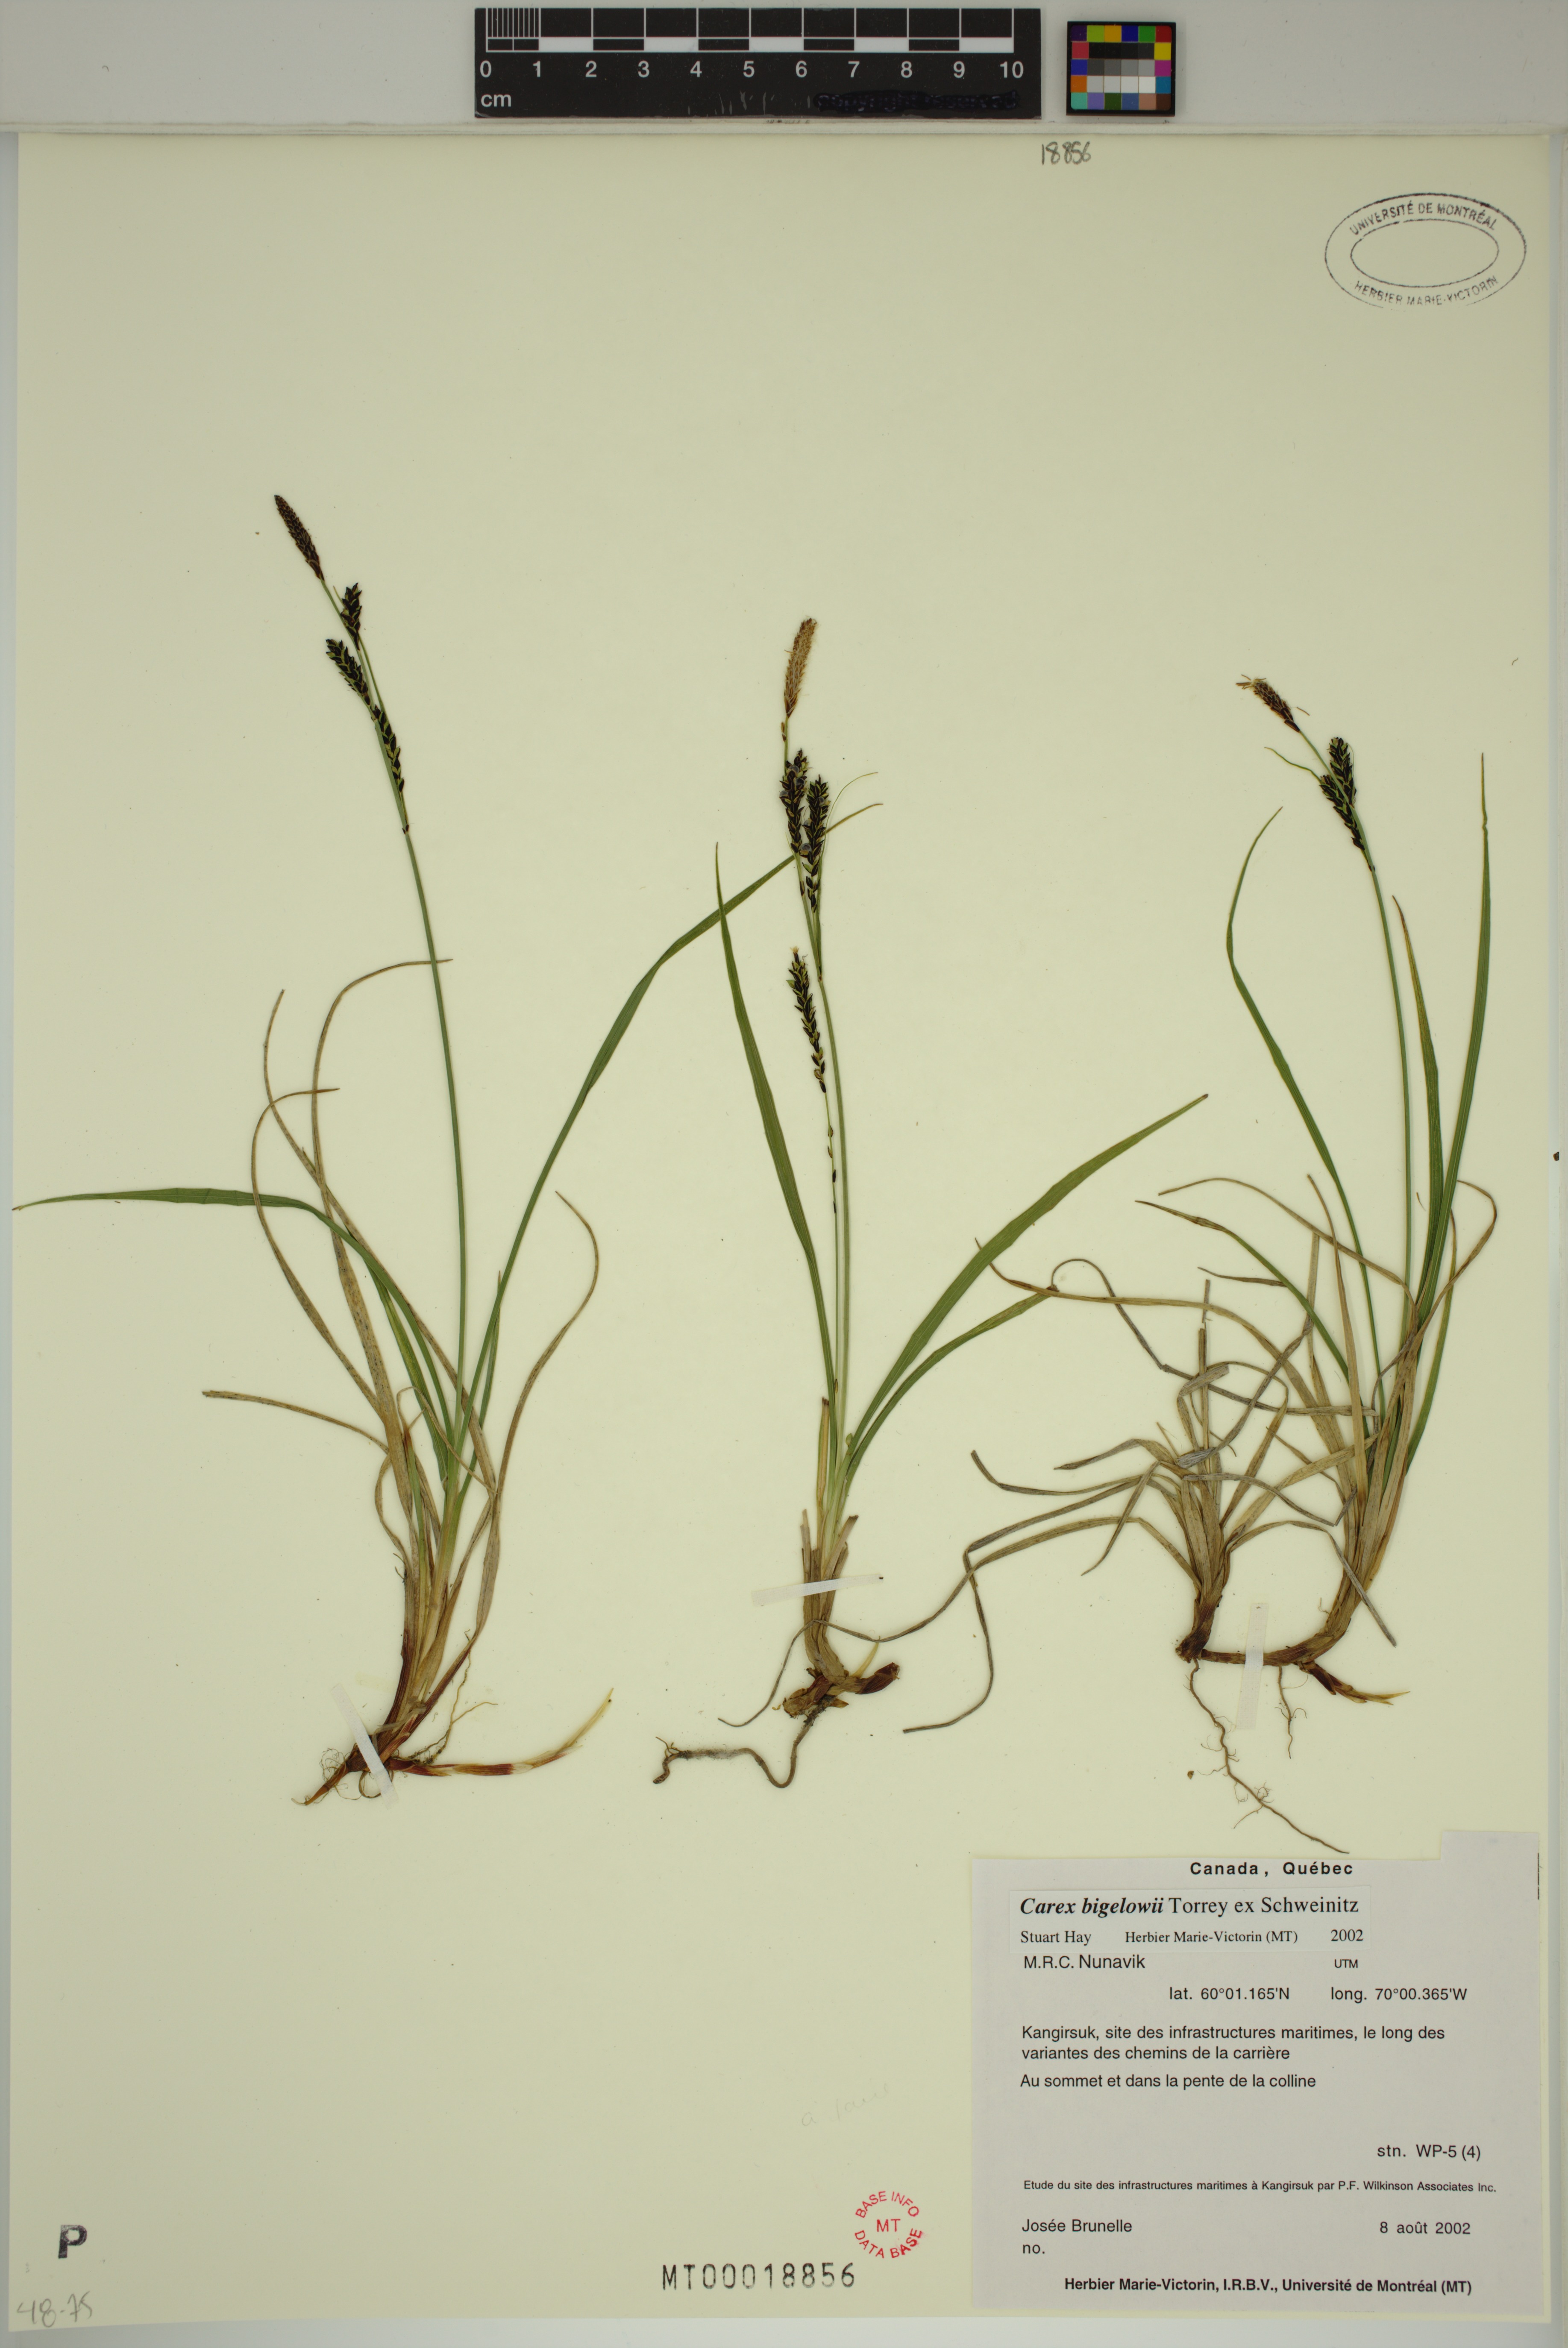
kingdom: Plantae
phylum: Tracheophyta
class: Liliopsida
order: Poales
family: Cyperaceae
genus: Carex
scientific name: Carex bigelowii
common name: Stiff sedge
